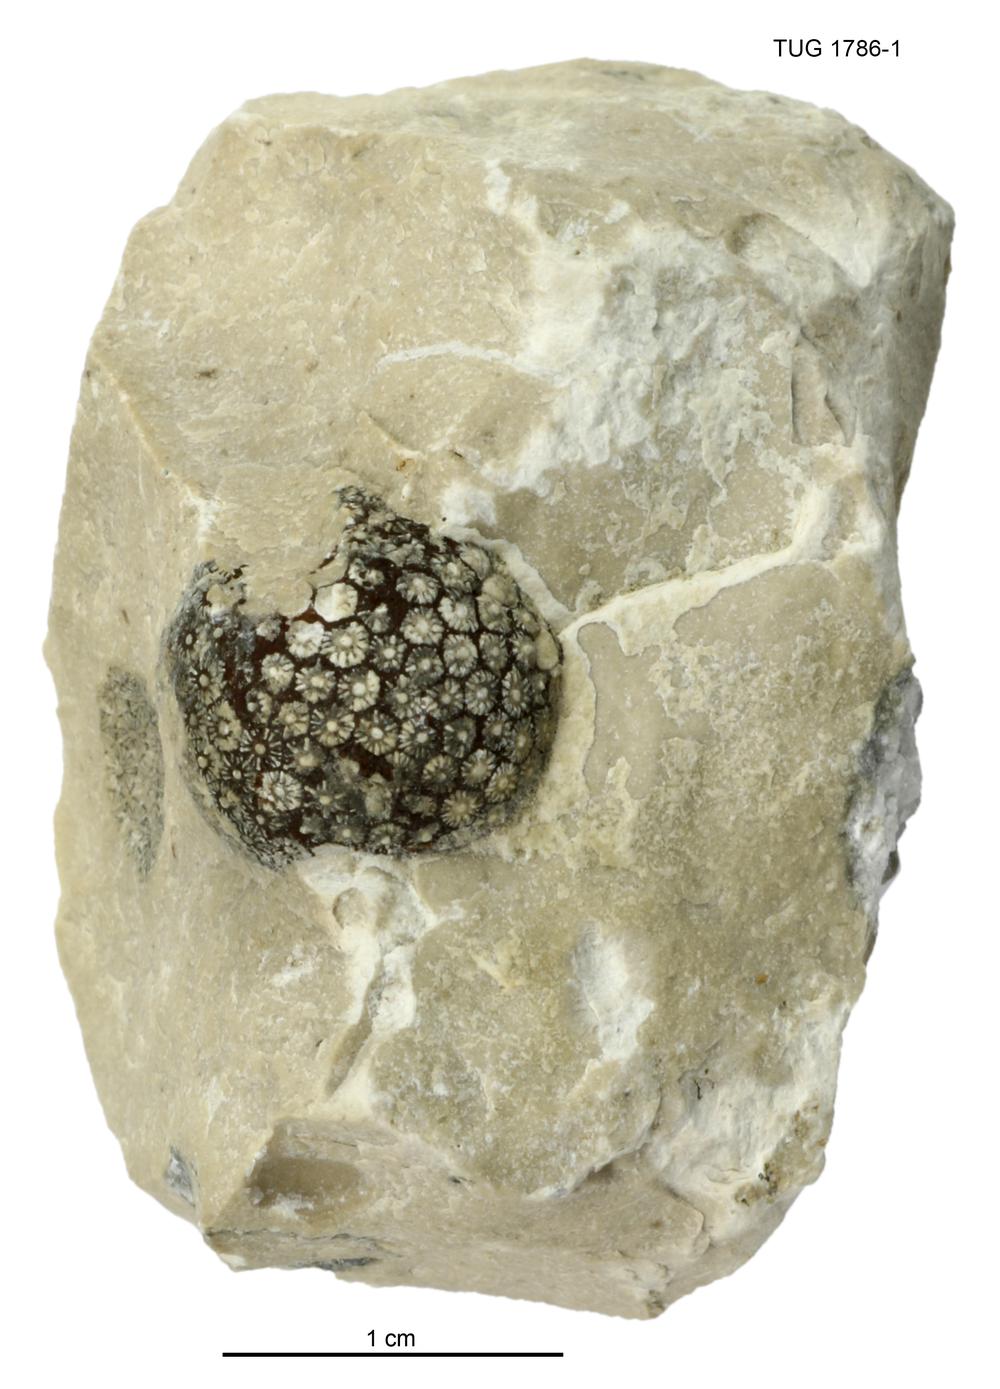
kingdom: Plantae
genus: Cyclorinus
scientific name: Cyclorinus Cyclocrinites spaskii
